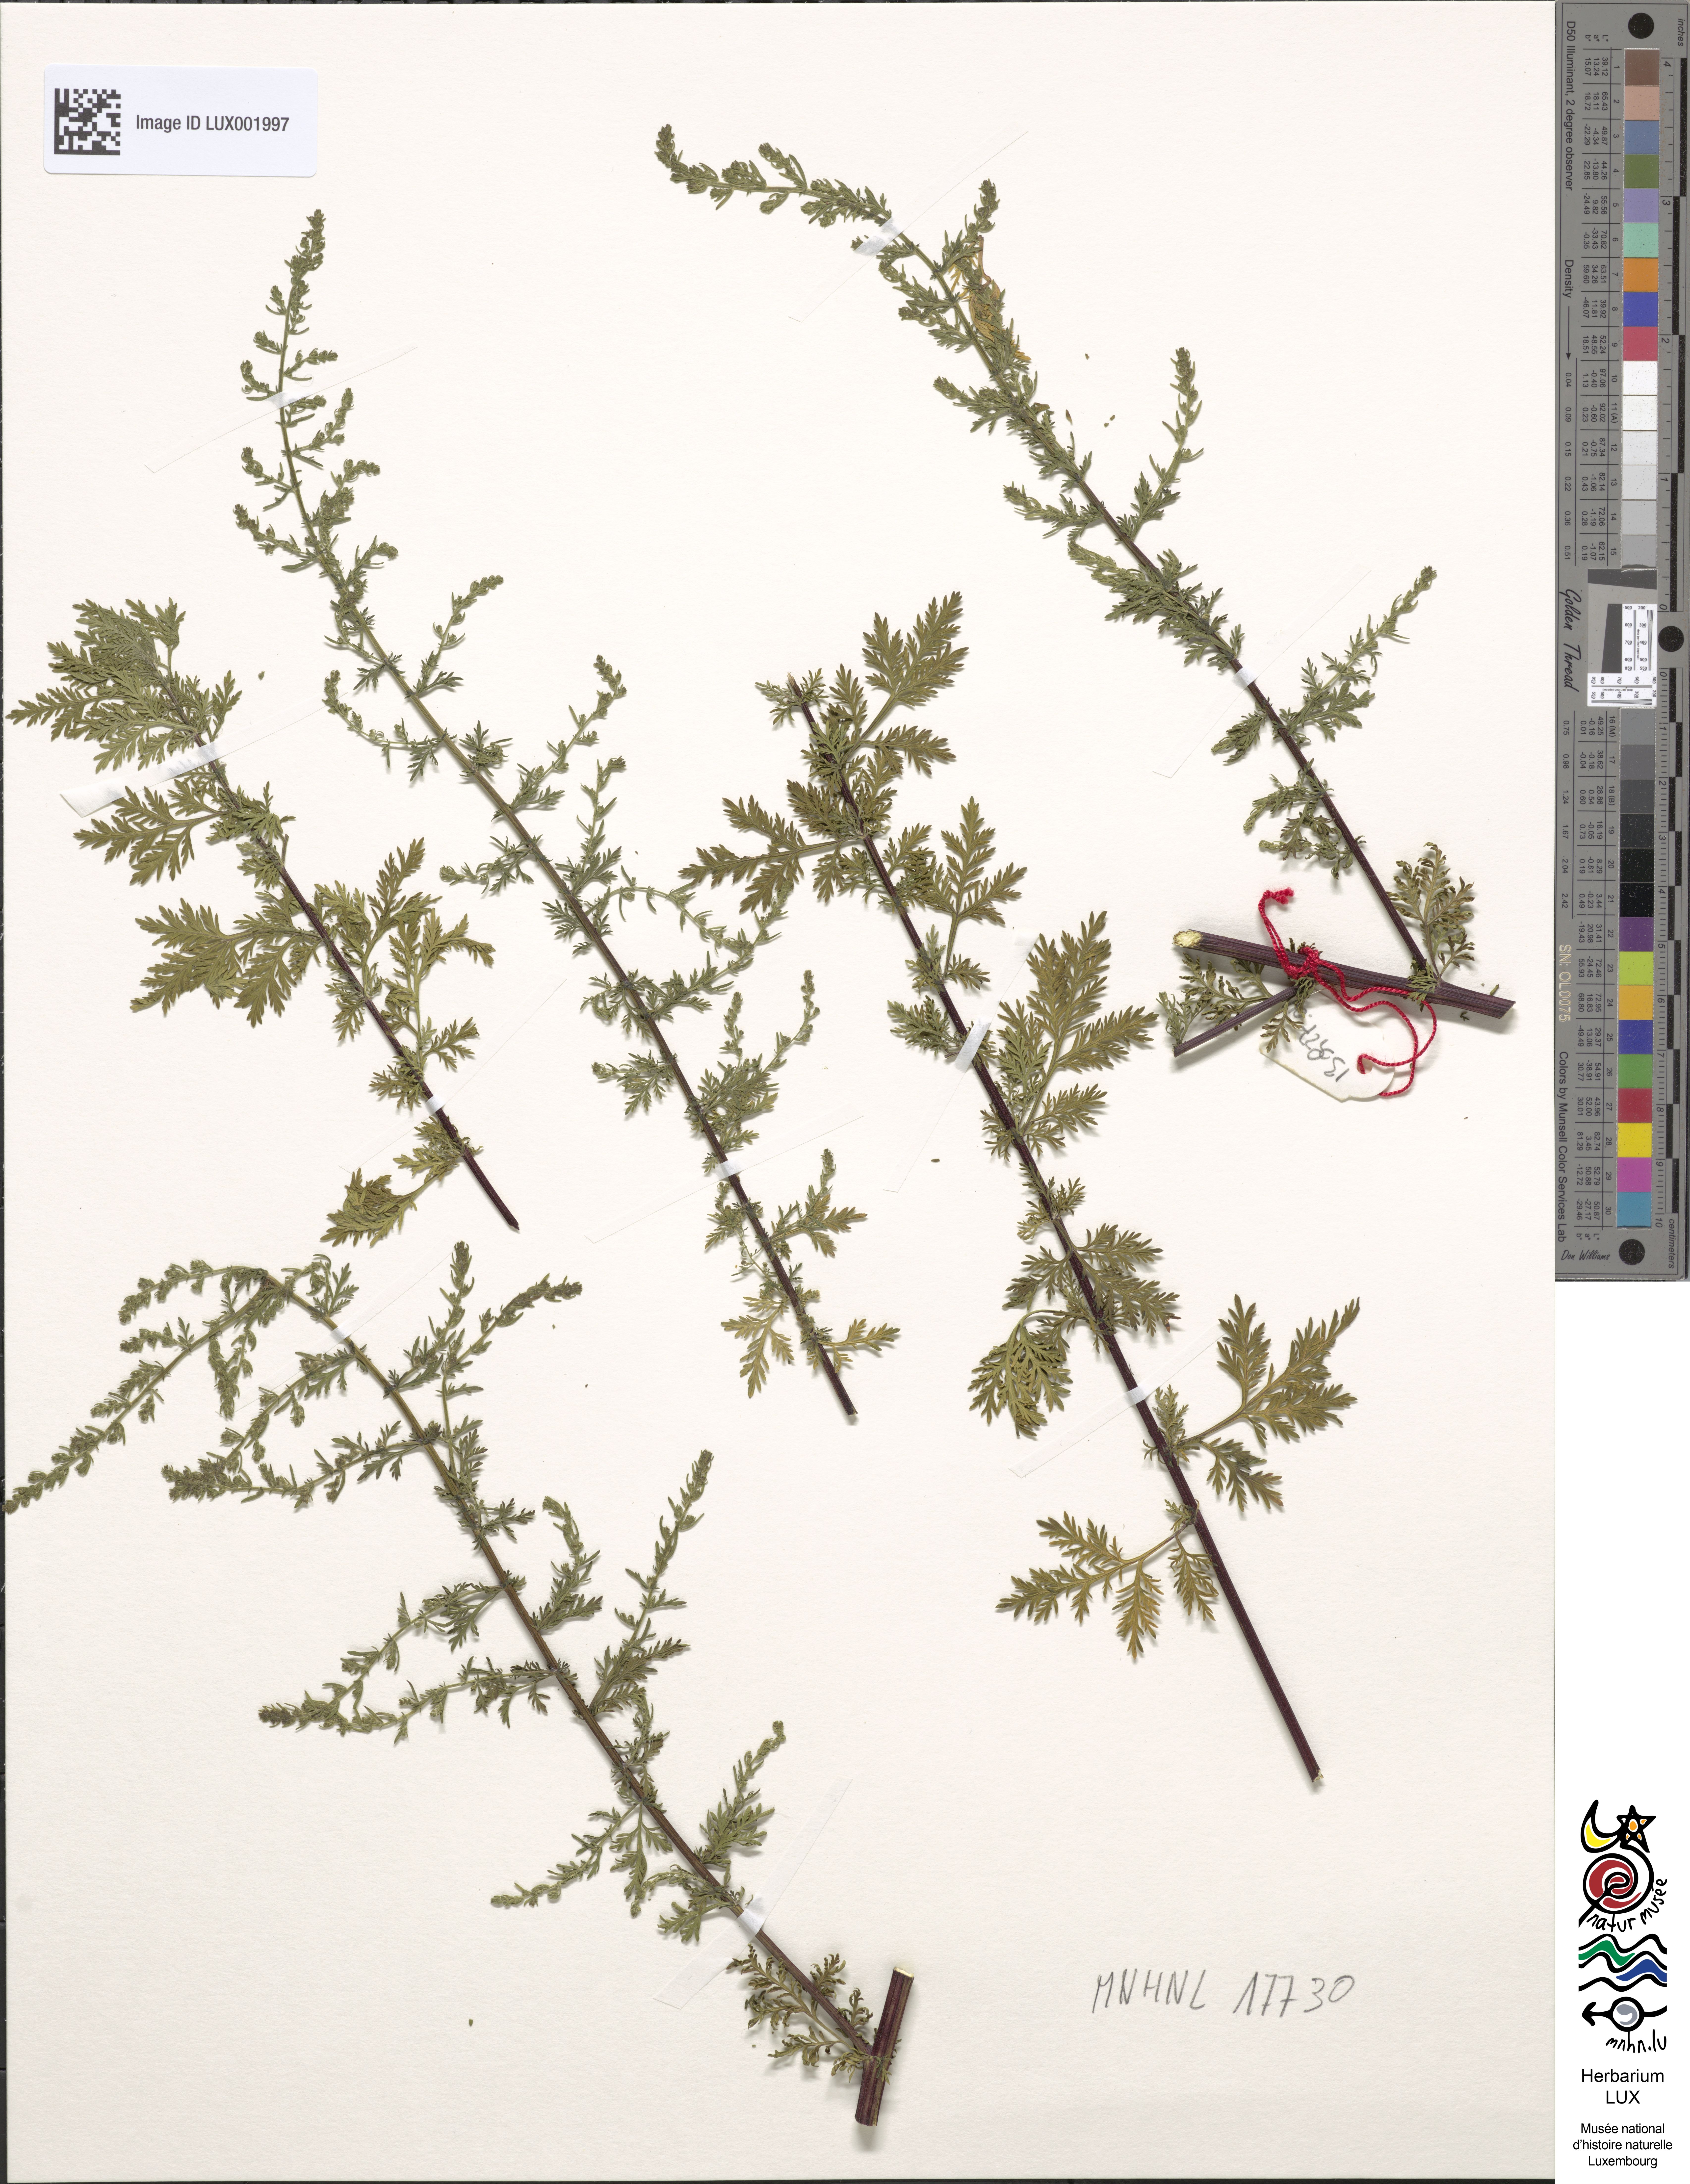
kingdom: Plantae
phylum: Tracheophyta
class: Magnoliopsida
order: Asterales
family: Asteraceae
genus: Artemisia
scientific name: Artemisia afra
